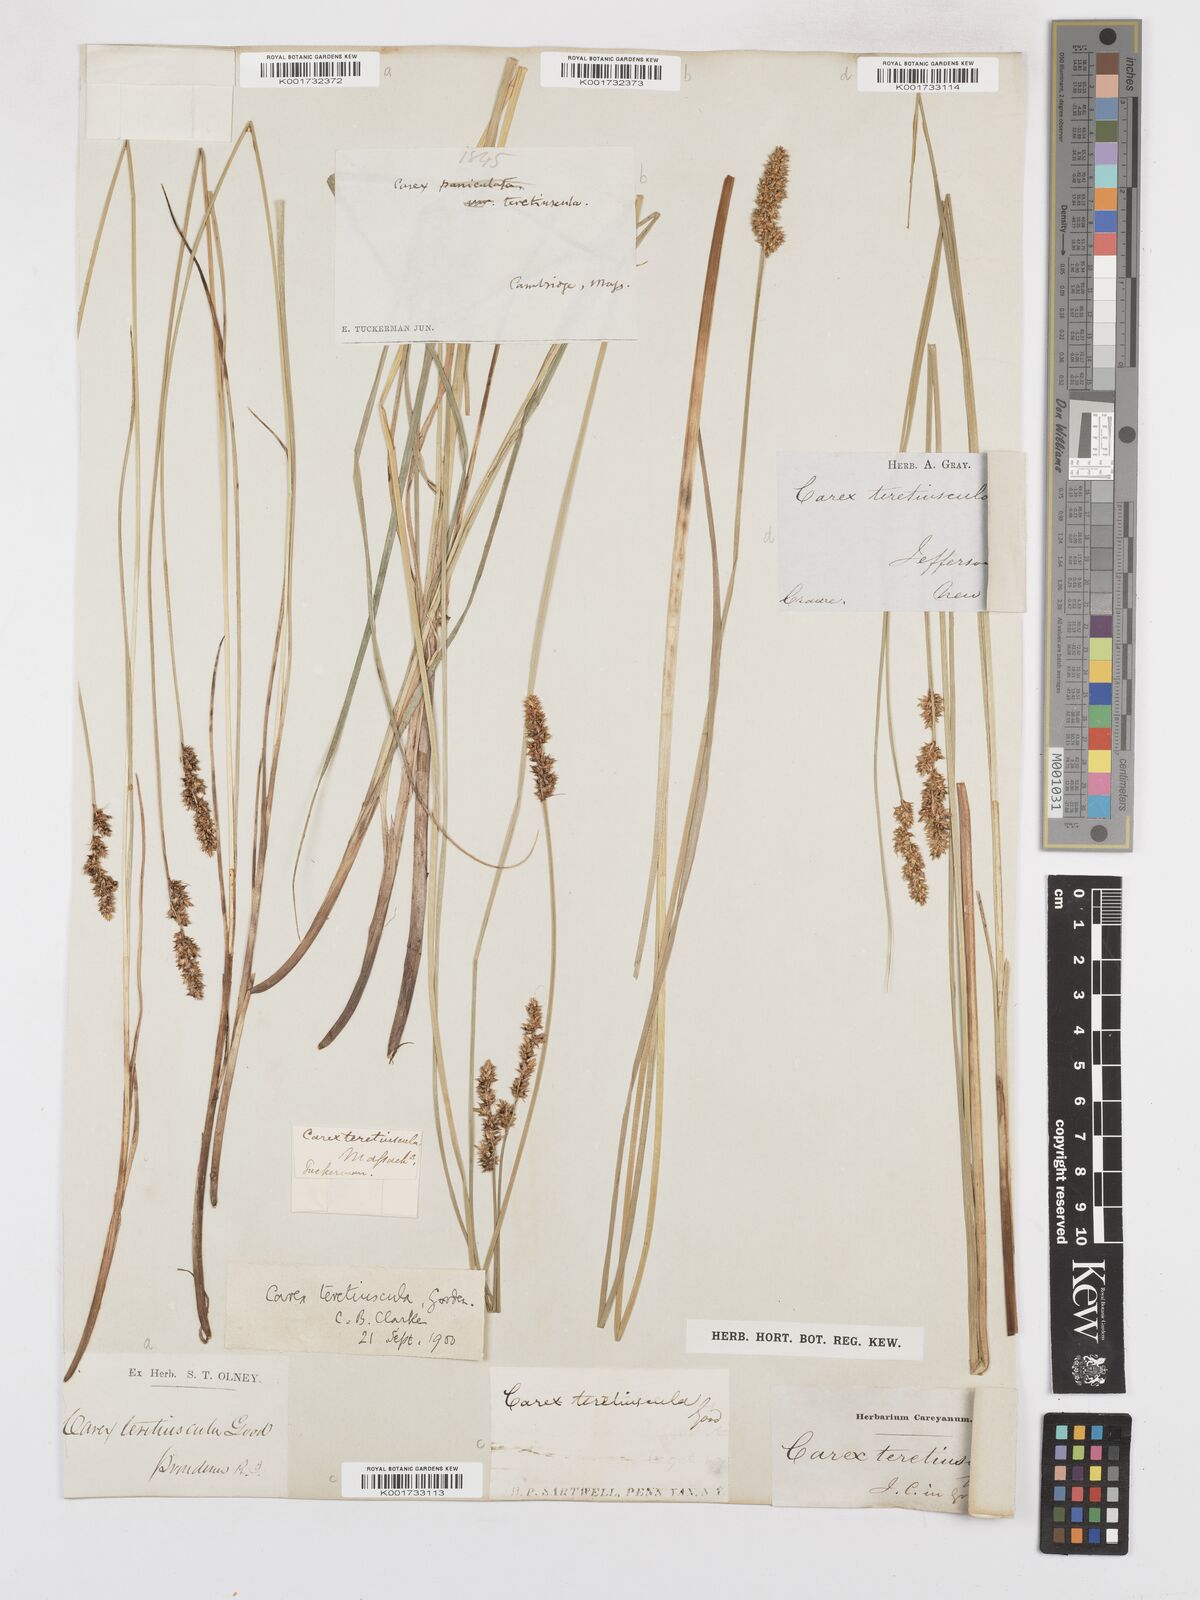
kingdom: Plantae
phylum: Tracheophyta
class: Liliopsida
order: Poales
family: Cyperaceae
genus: Carex
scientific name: Carex prairea
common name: Prairie sedge
